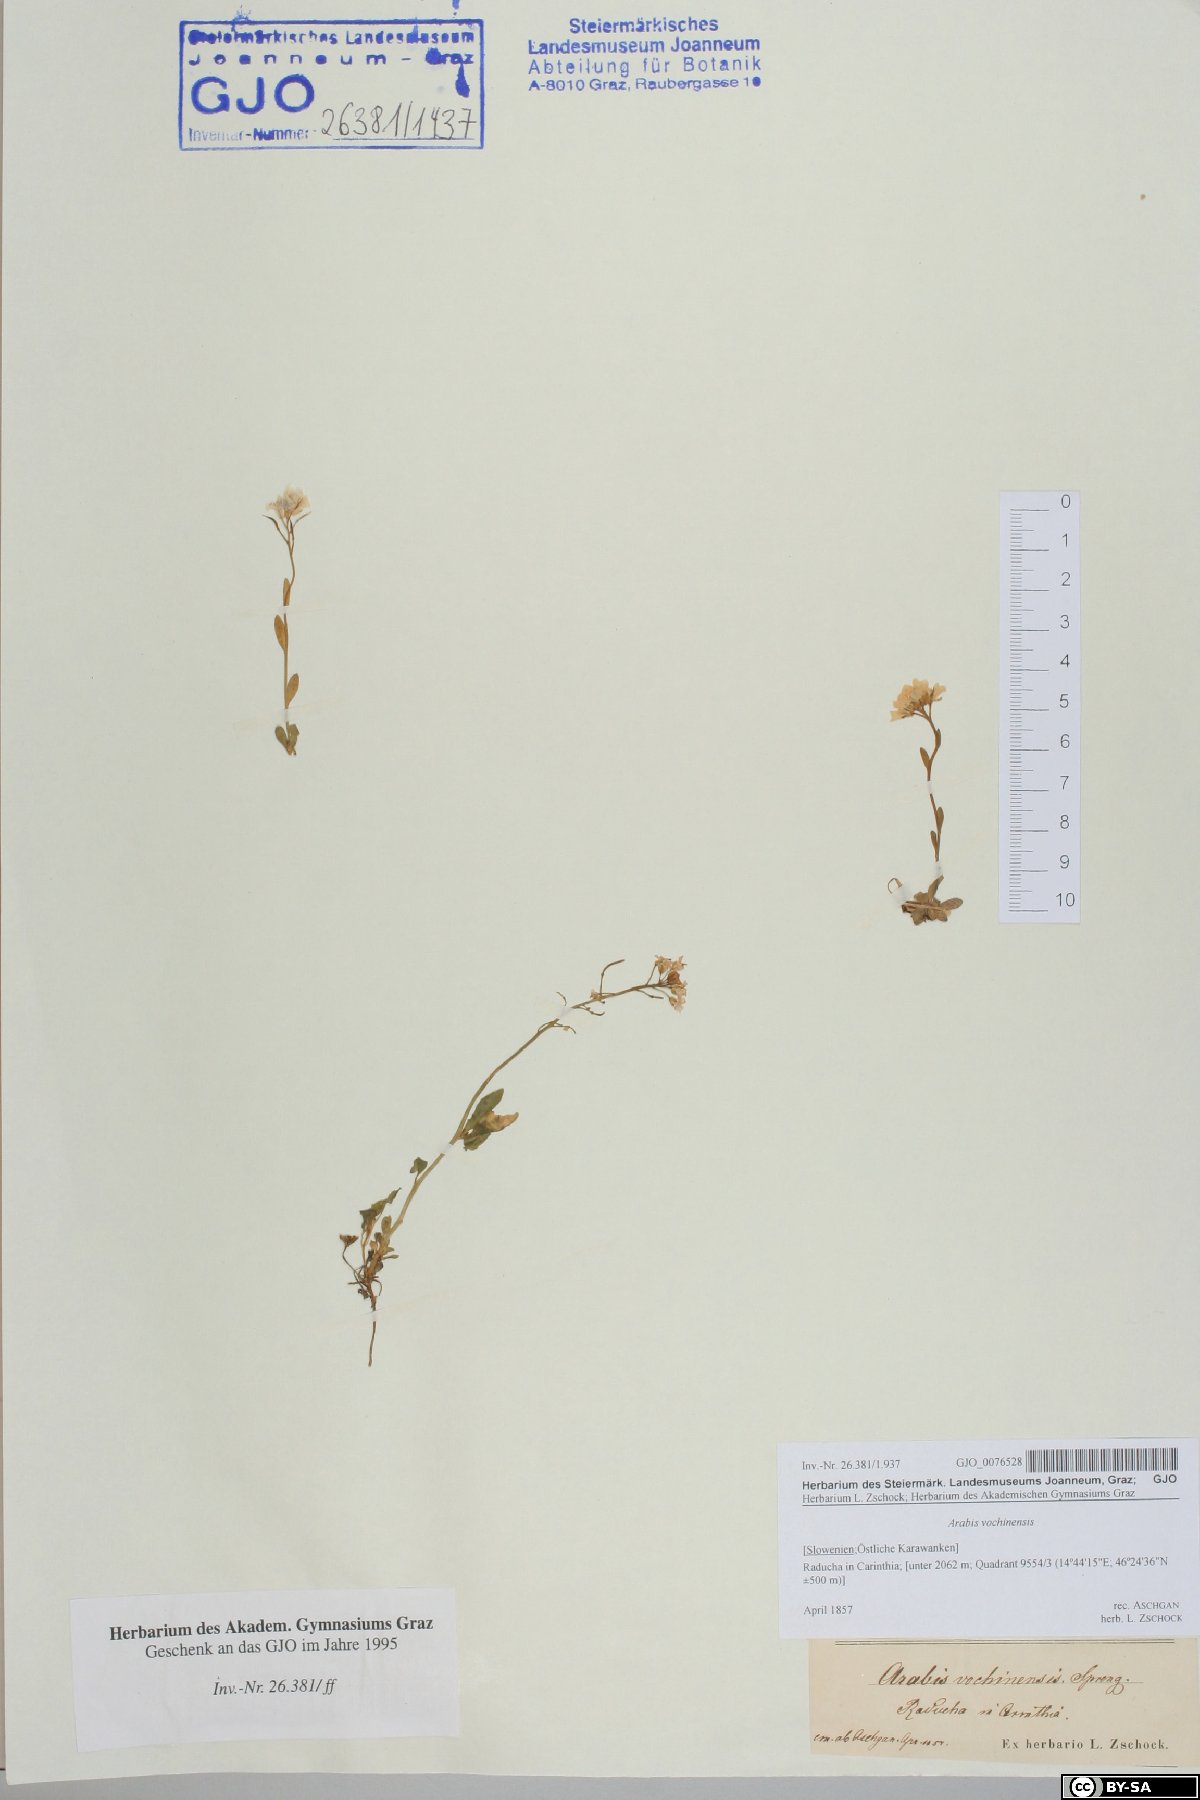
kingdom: Plantae
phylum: Tracheophyta
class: Magnoliopsida
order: Brassicales
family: Brassicaceae
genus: Arabis
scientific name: Arabis vochinensis
